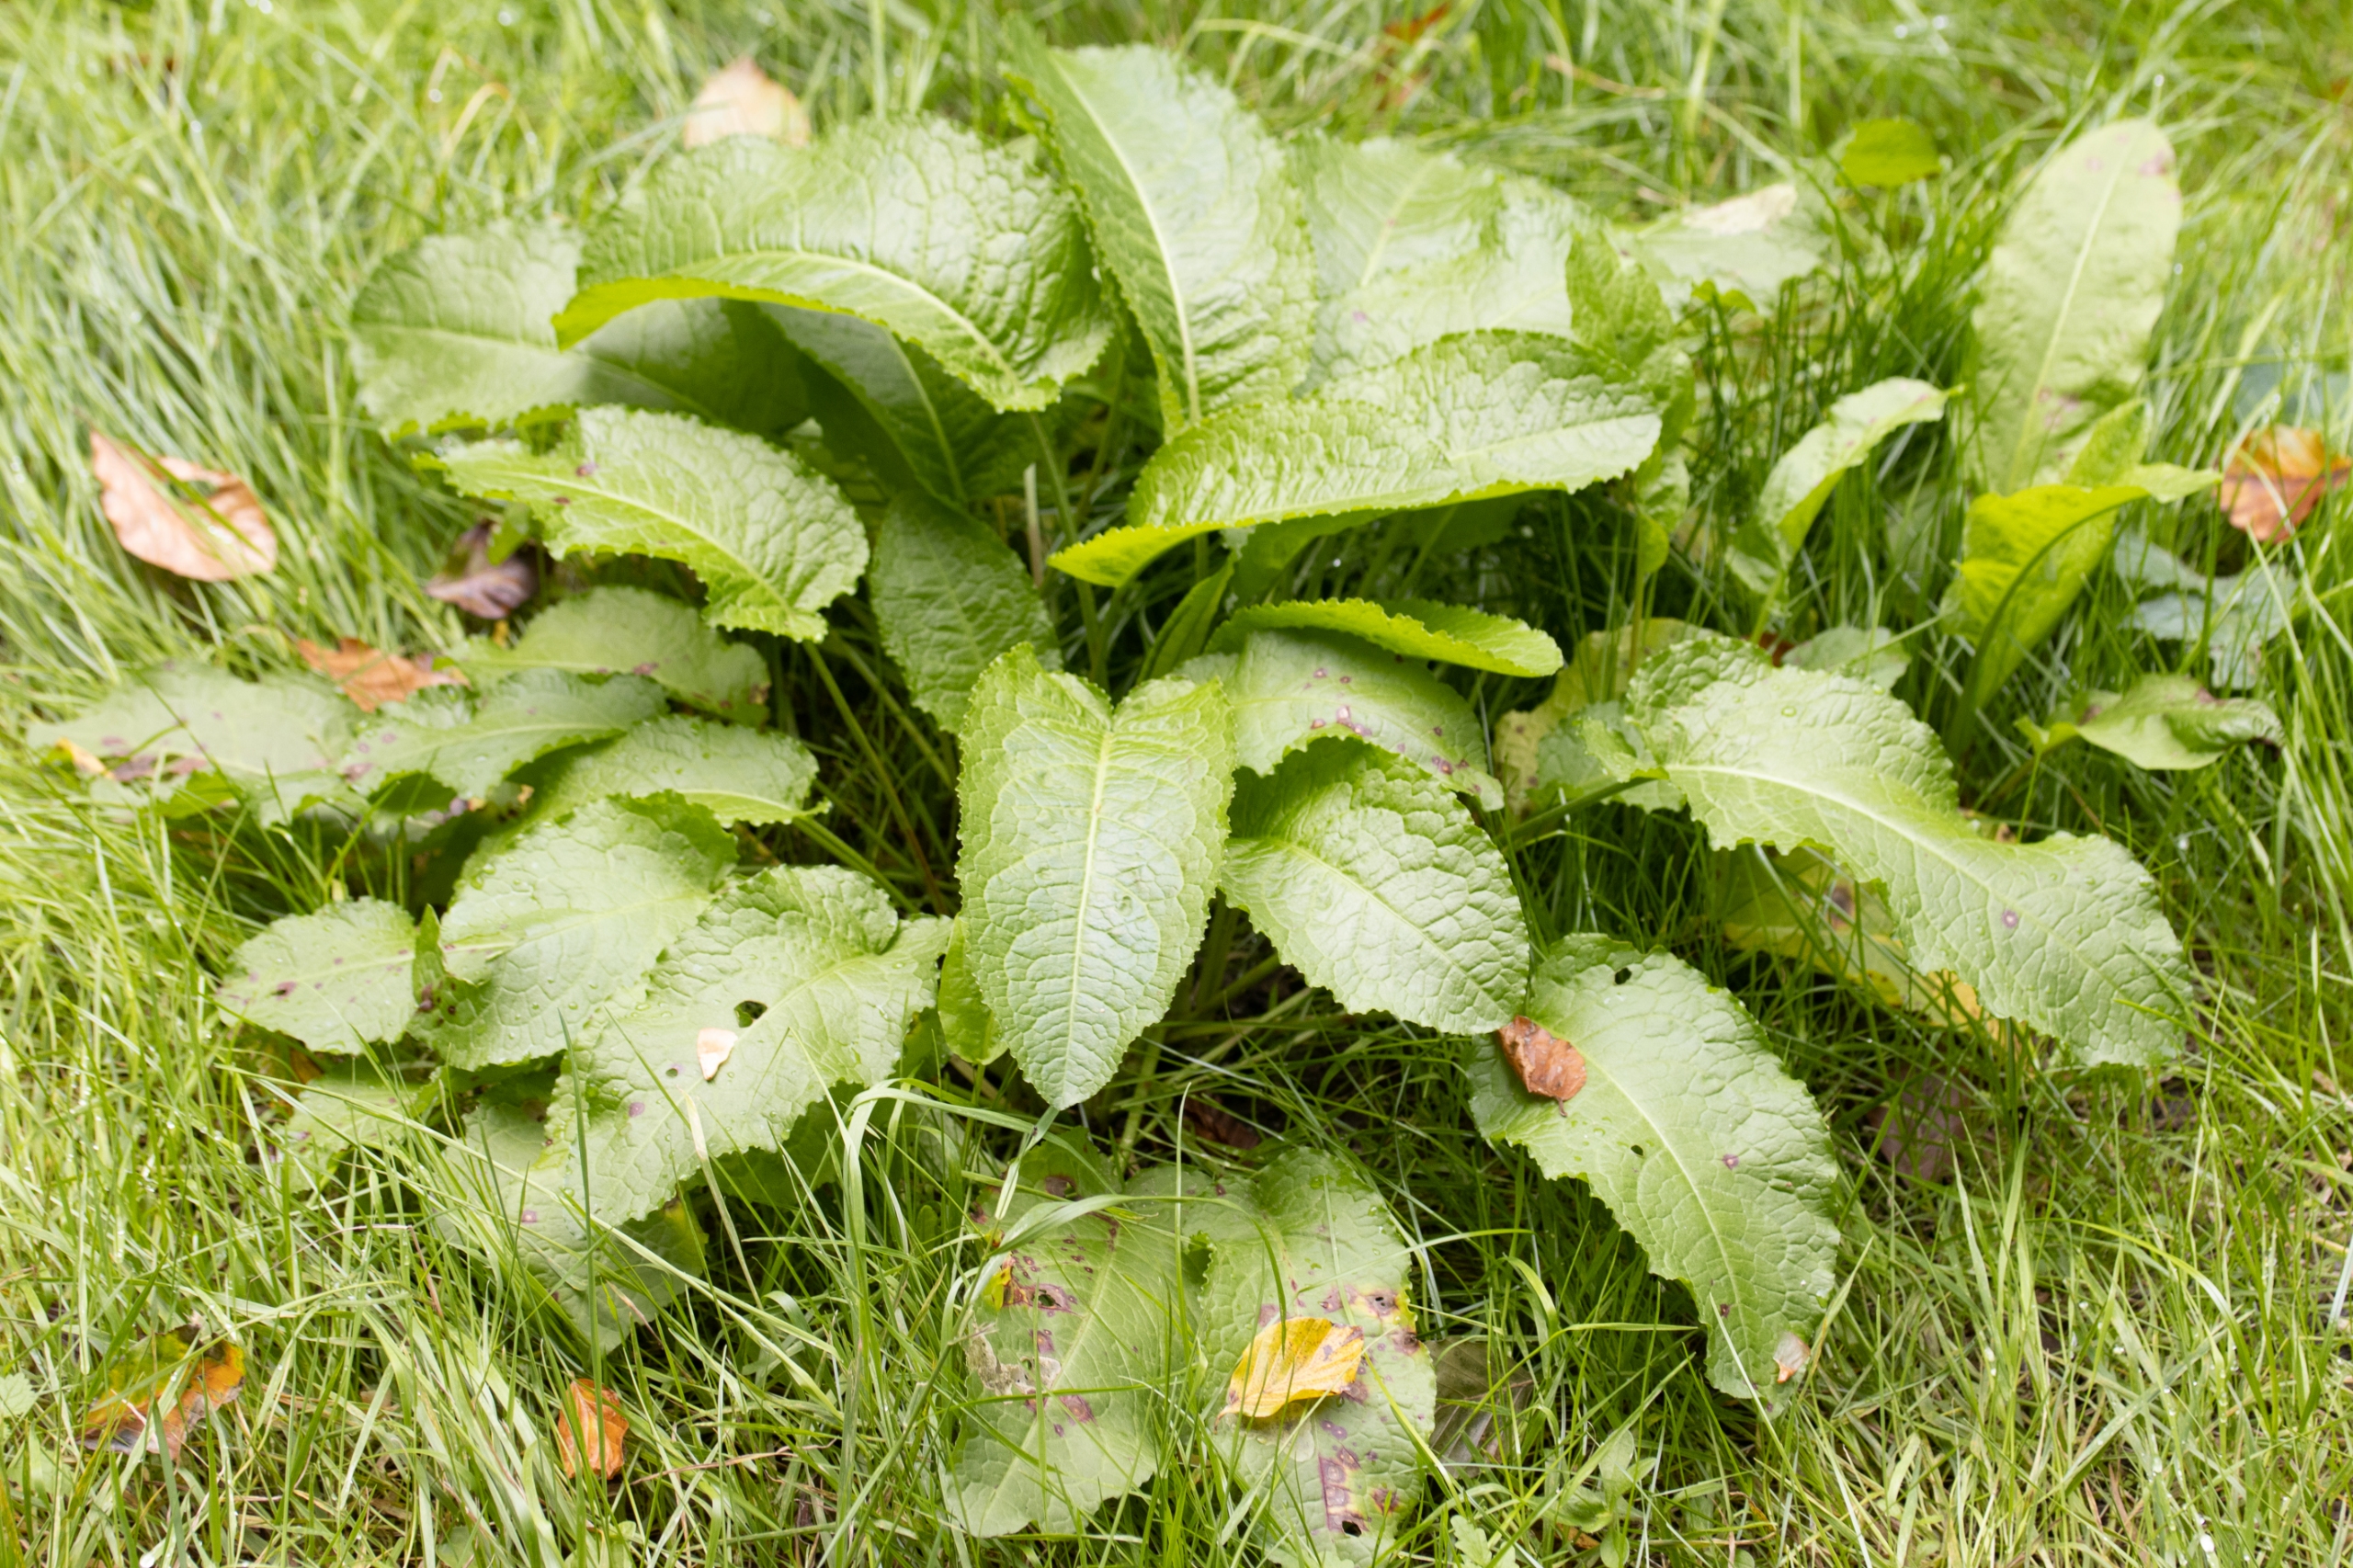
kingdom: Plantae
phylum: Tracheophyta
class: Magnoliopsida
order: Caryophyllales
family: Polygonaceae
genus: Rumex
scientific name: Rumex obtusifolius
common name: Butbladet skræppe
